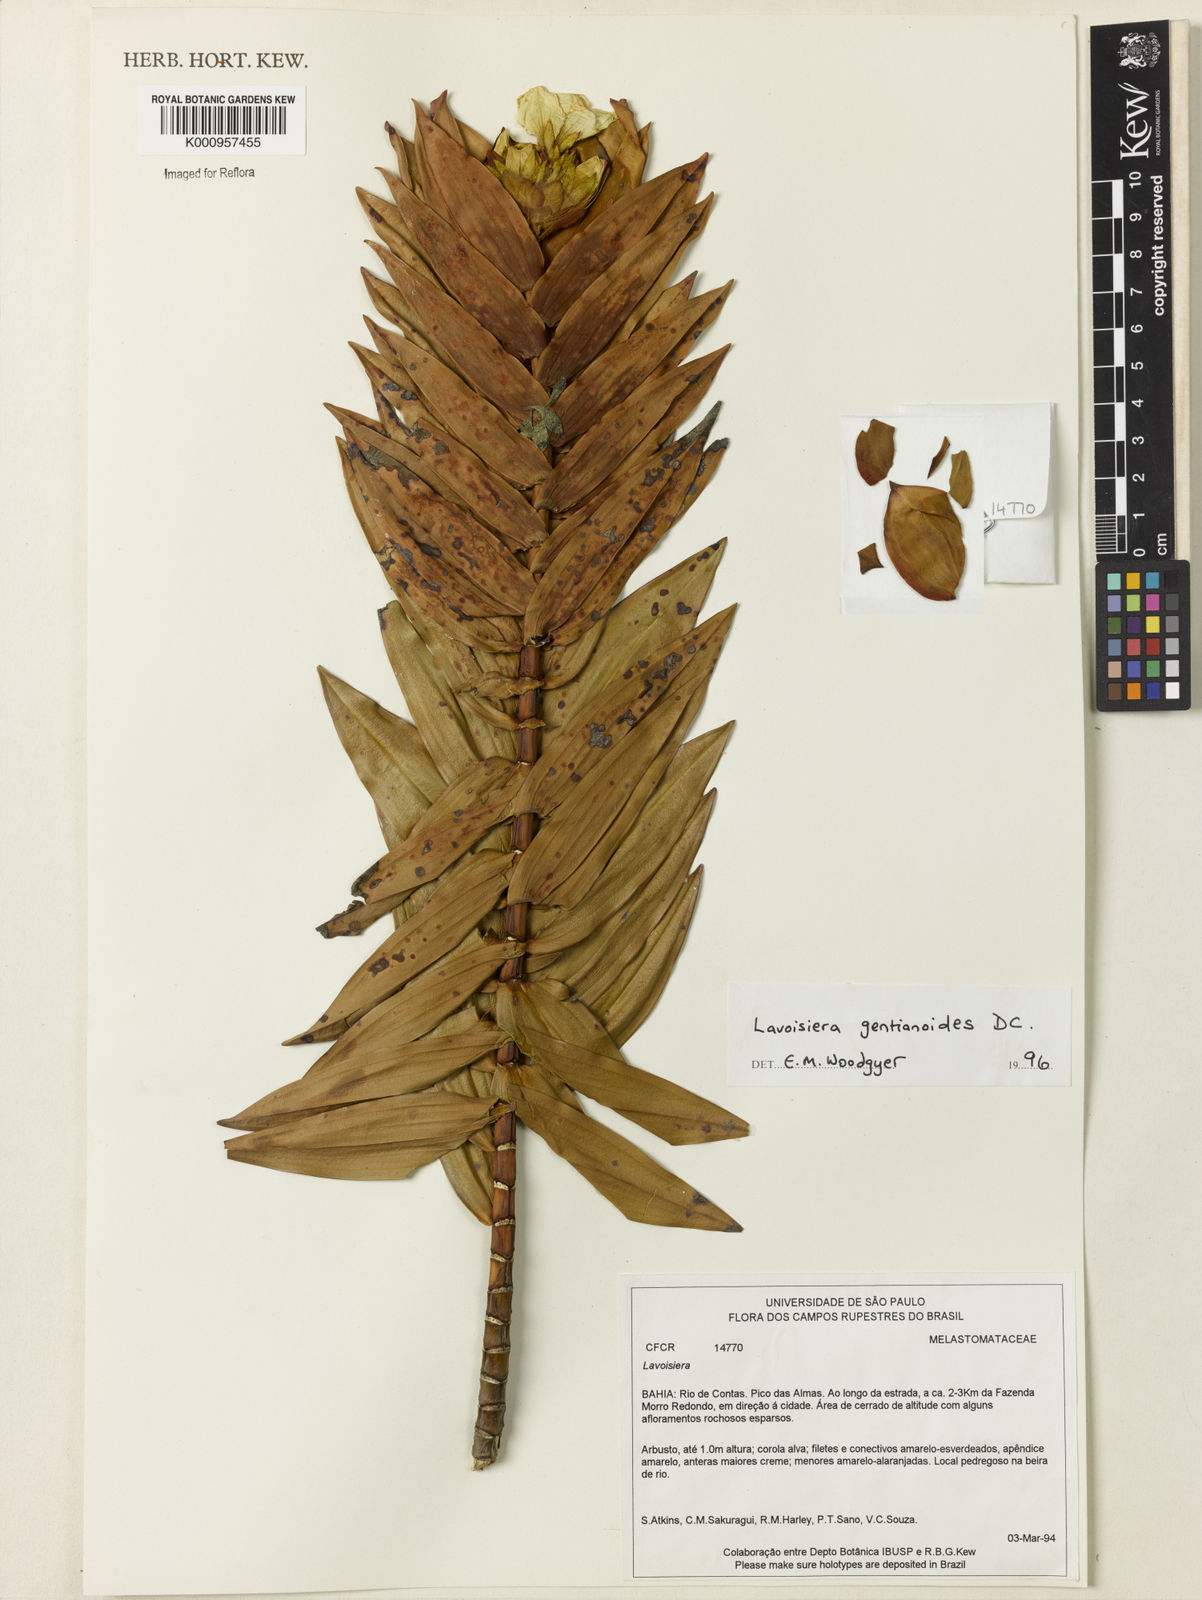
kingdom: Plantae
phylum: Tracheophyta
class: Magnoliopsida
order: Myrtales
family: Melastomataceae
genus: Microlicia
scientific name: Microlicia gentianoides
